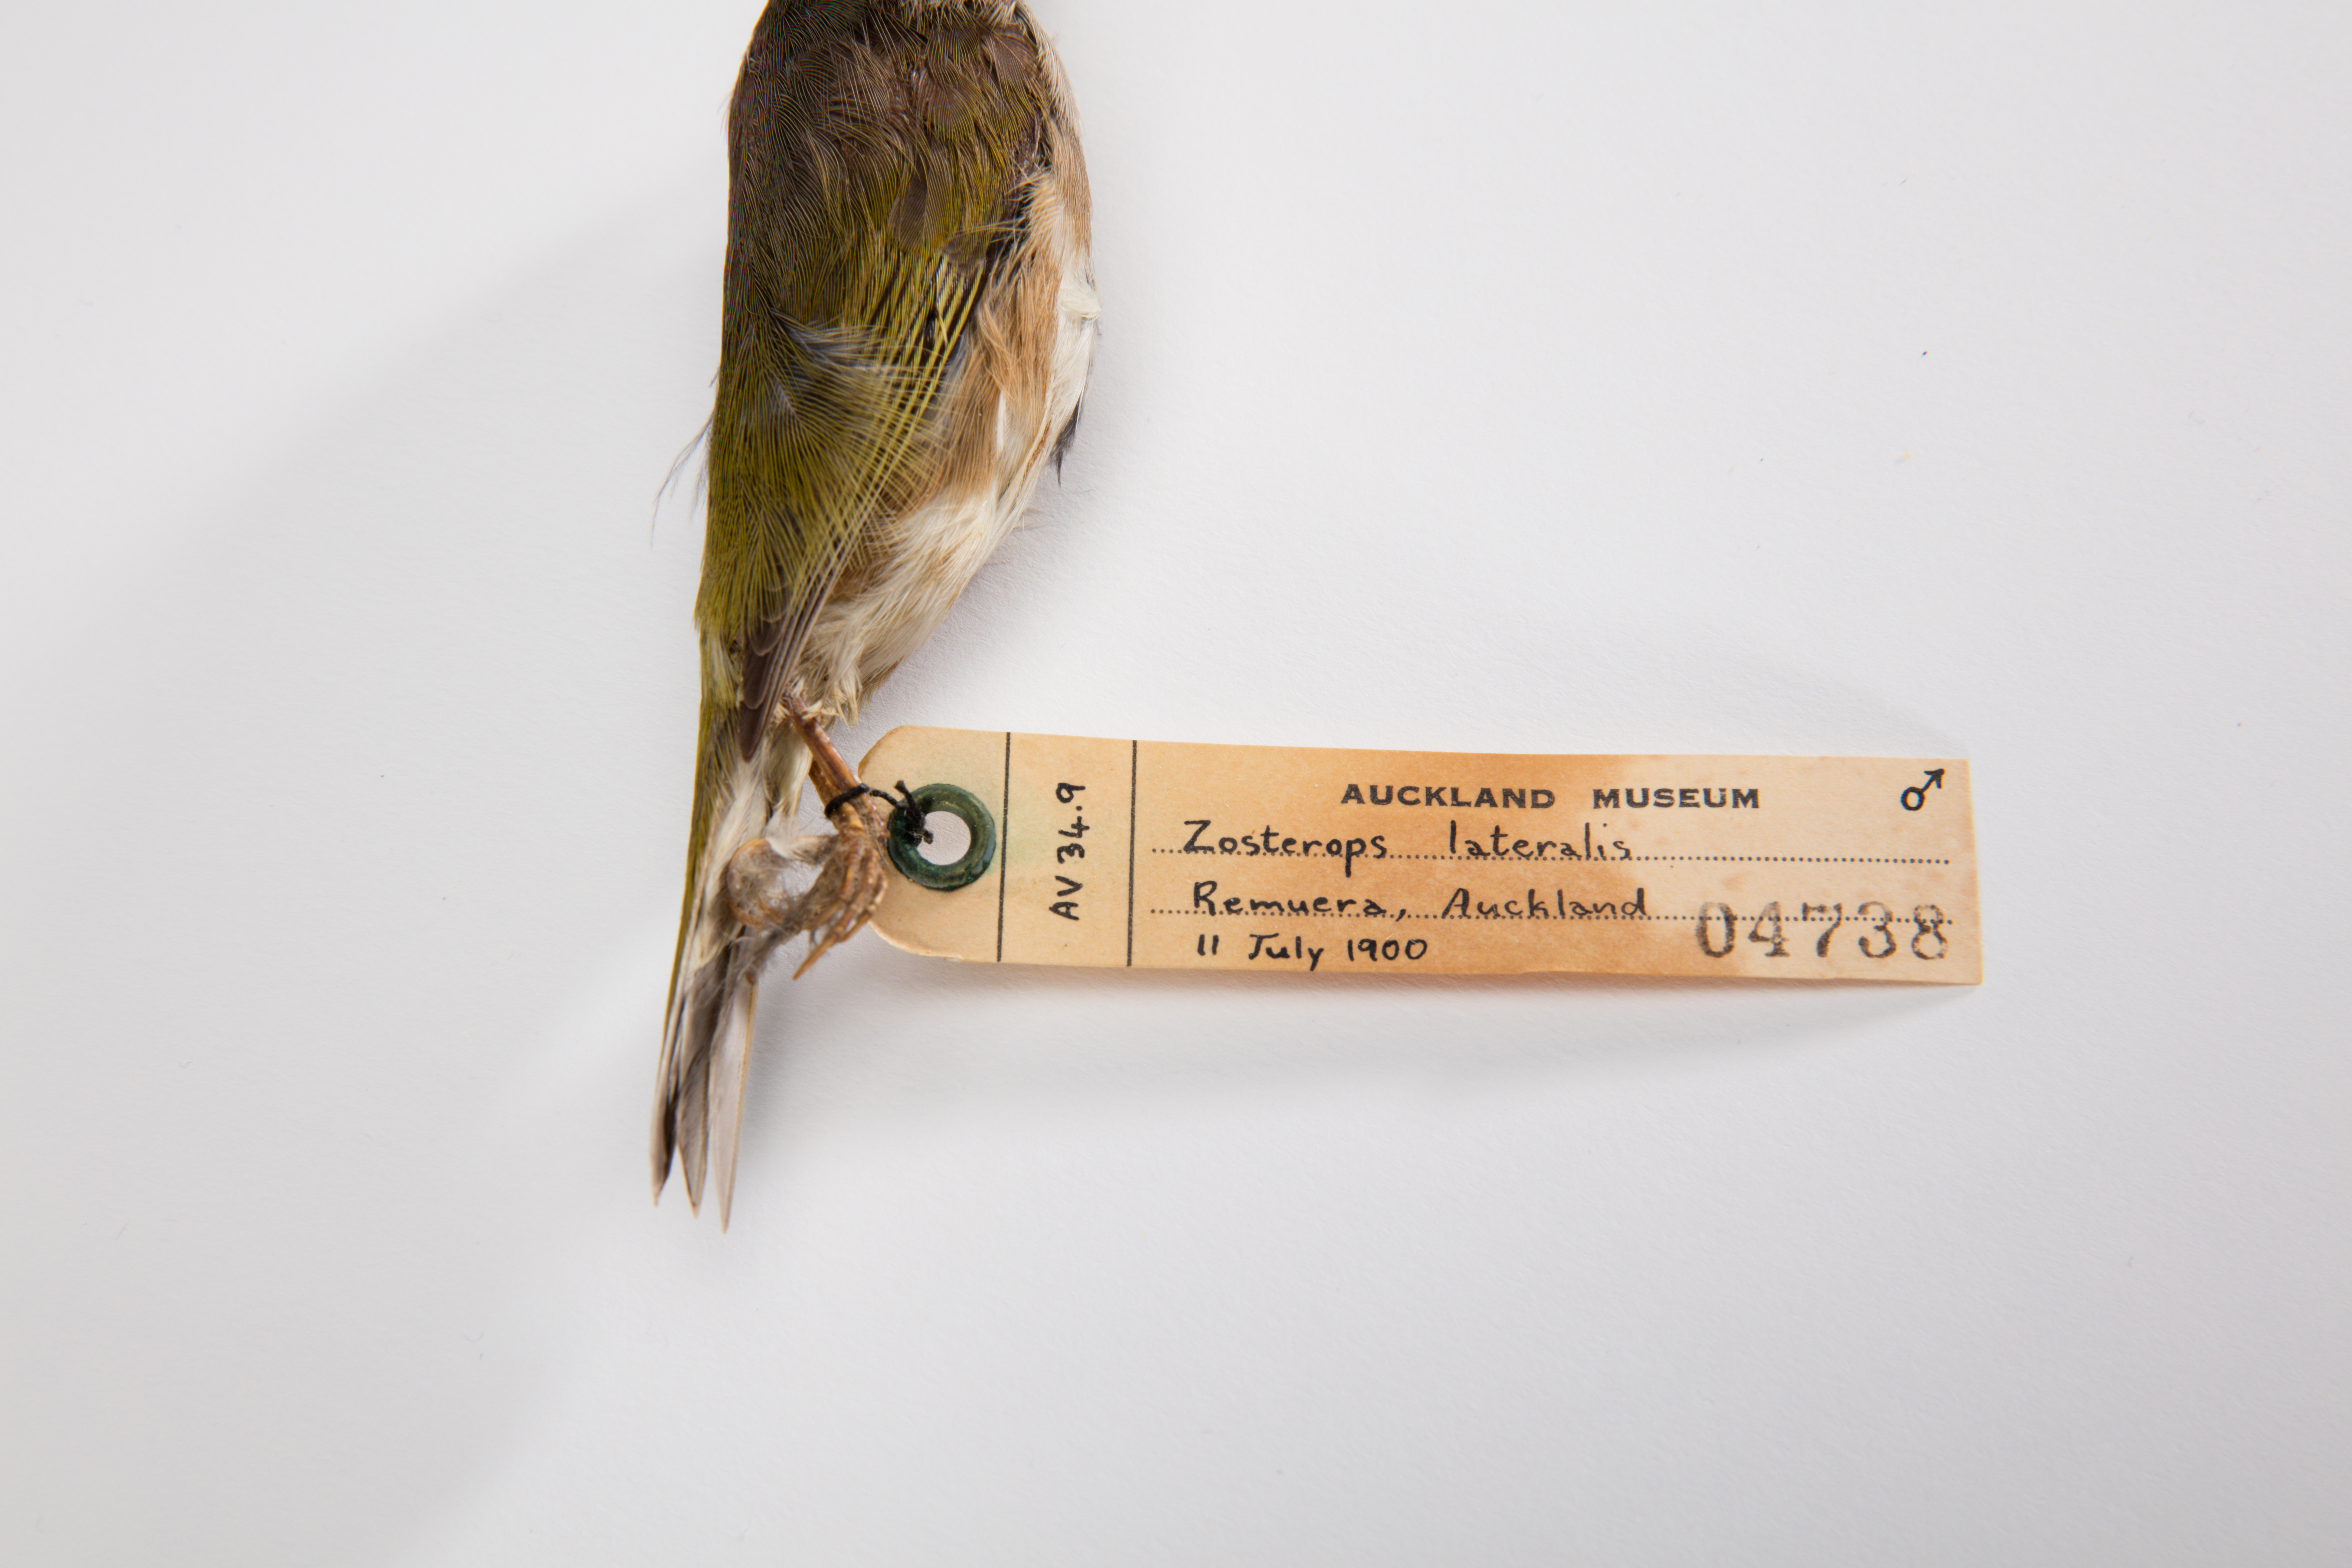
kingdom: Animalia
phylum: Chordata
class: Aves
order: Passeriformes
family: Zosteropidae
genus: Zosterops
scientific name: Zosterops lateralis
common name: Silvereye
